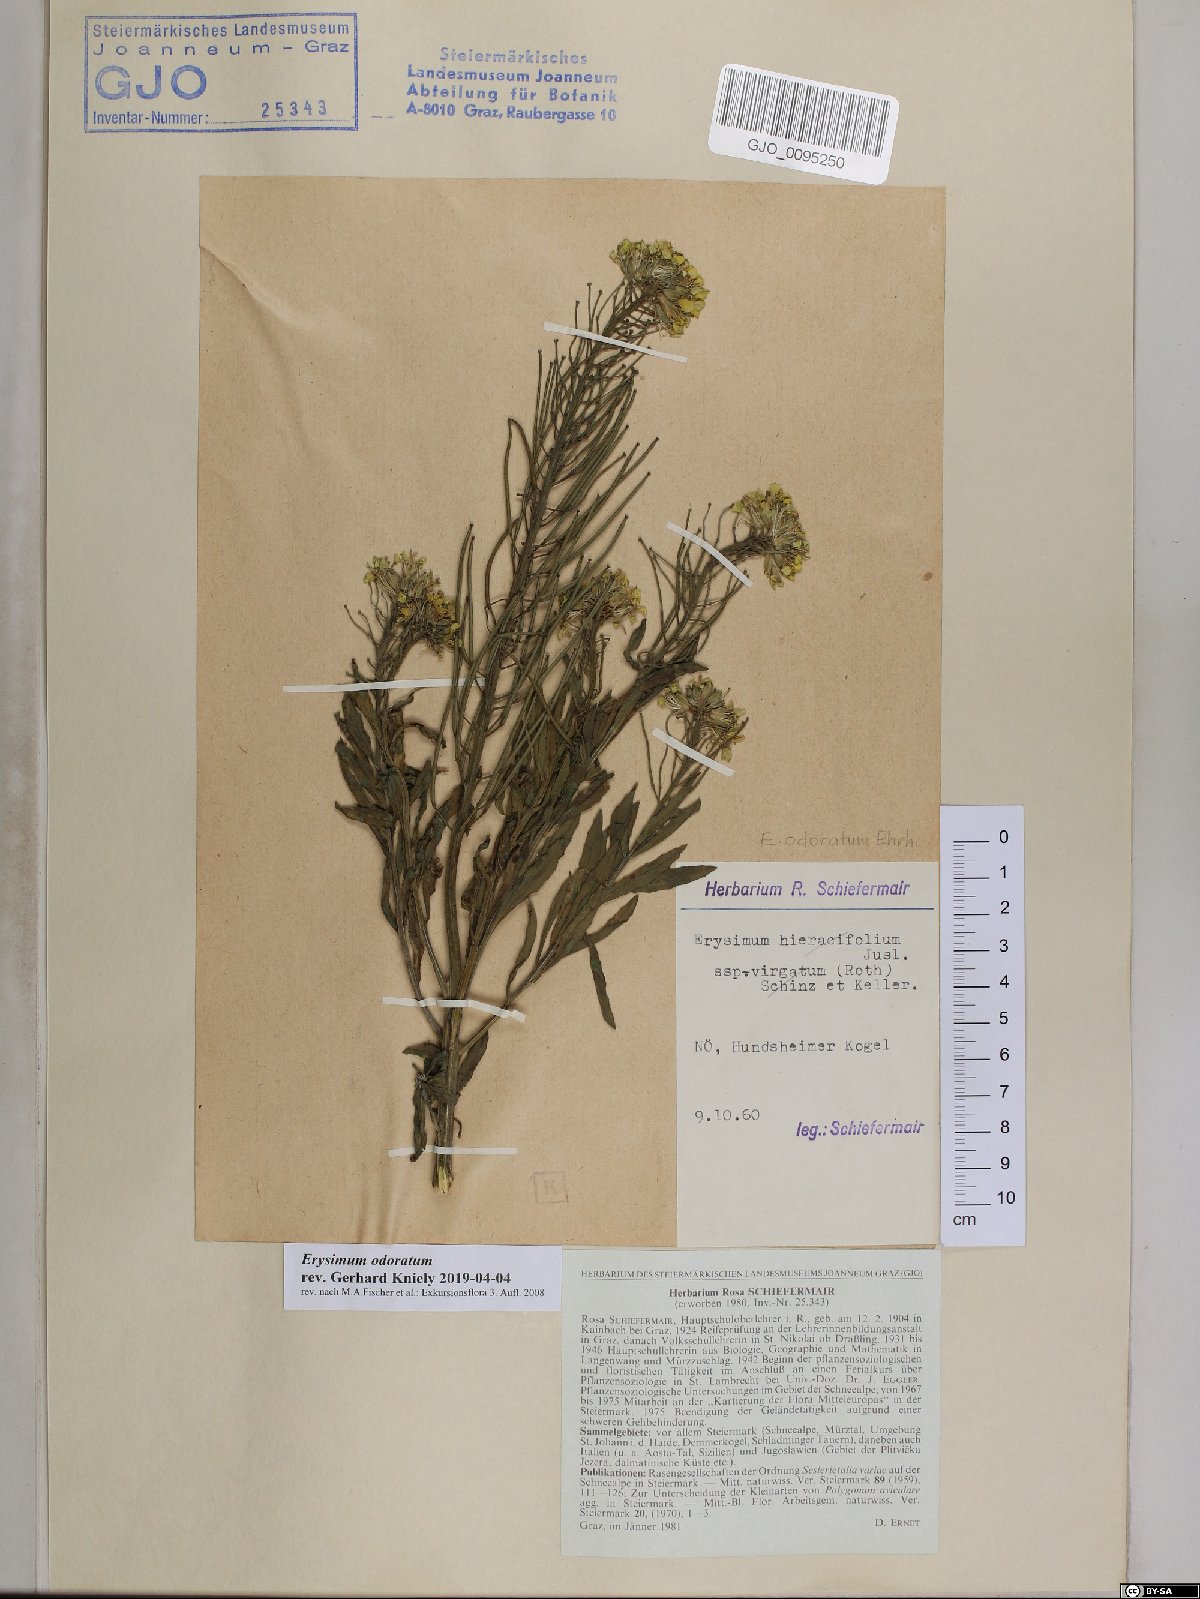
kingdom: Plantae
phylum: Tracheophyta
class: Magnoliopsida
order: Brassicales
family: Brassicaceae
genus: Erysimum
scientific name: Erysimum odoratum
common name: Smelly wallflower
